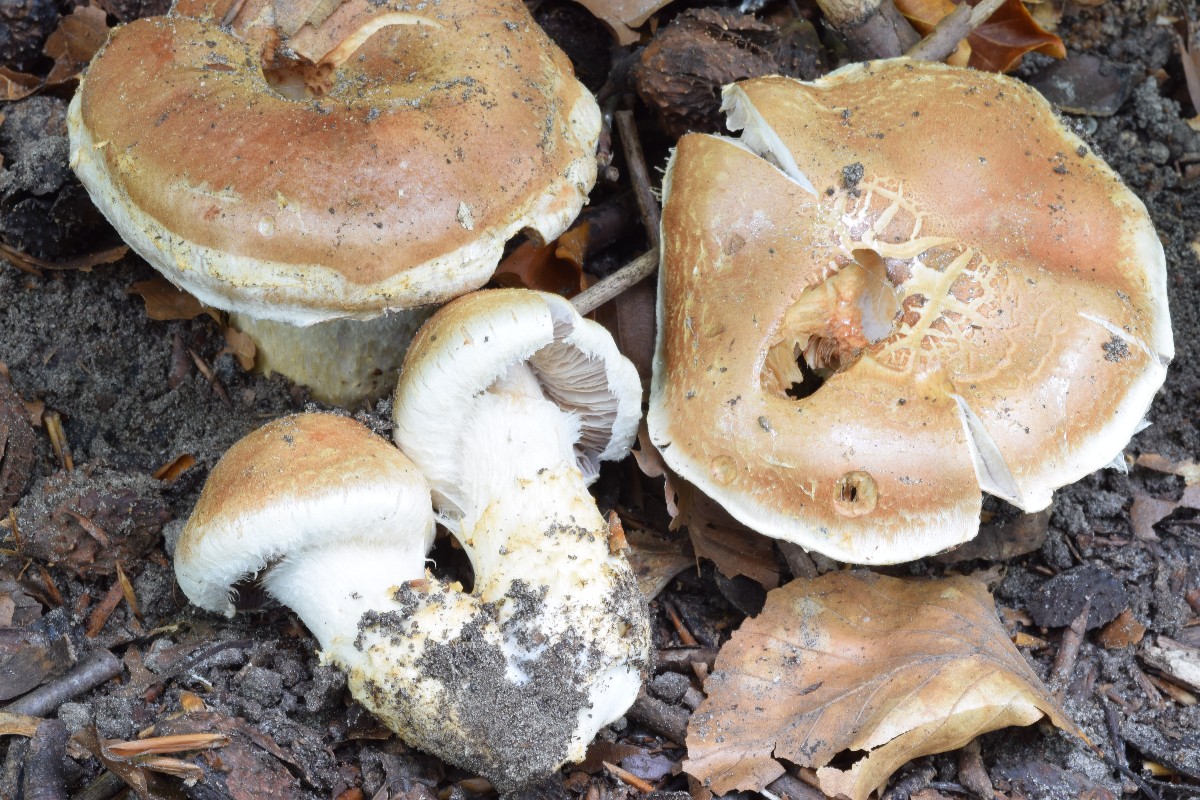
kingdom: Fungi
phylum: Basidiomycota
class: Agaricomycetes
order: Agaricales
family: Cortinariaceae
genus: Phlegmacium
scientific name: Phlegmacium vulpinum
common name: ringbæltet slørhat
